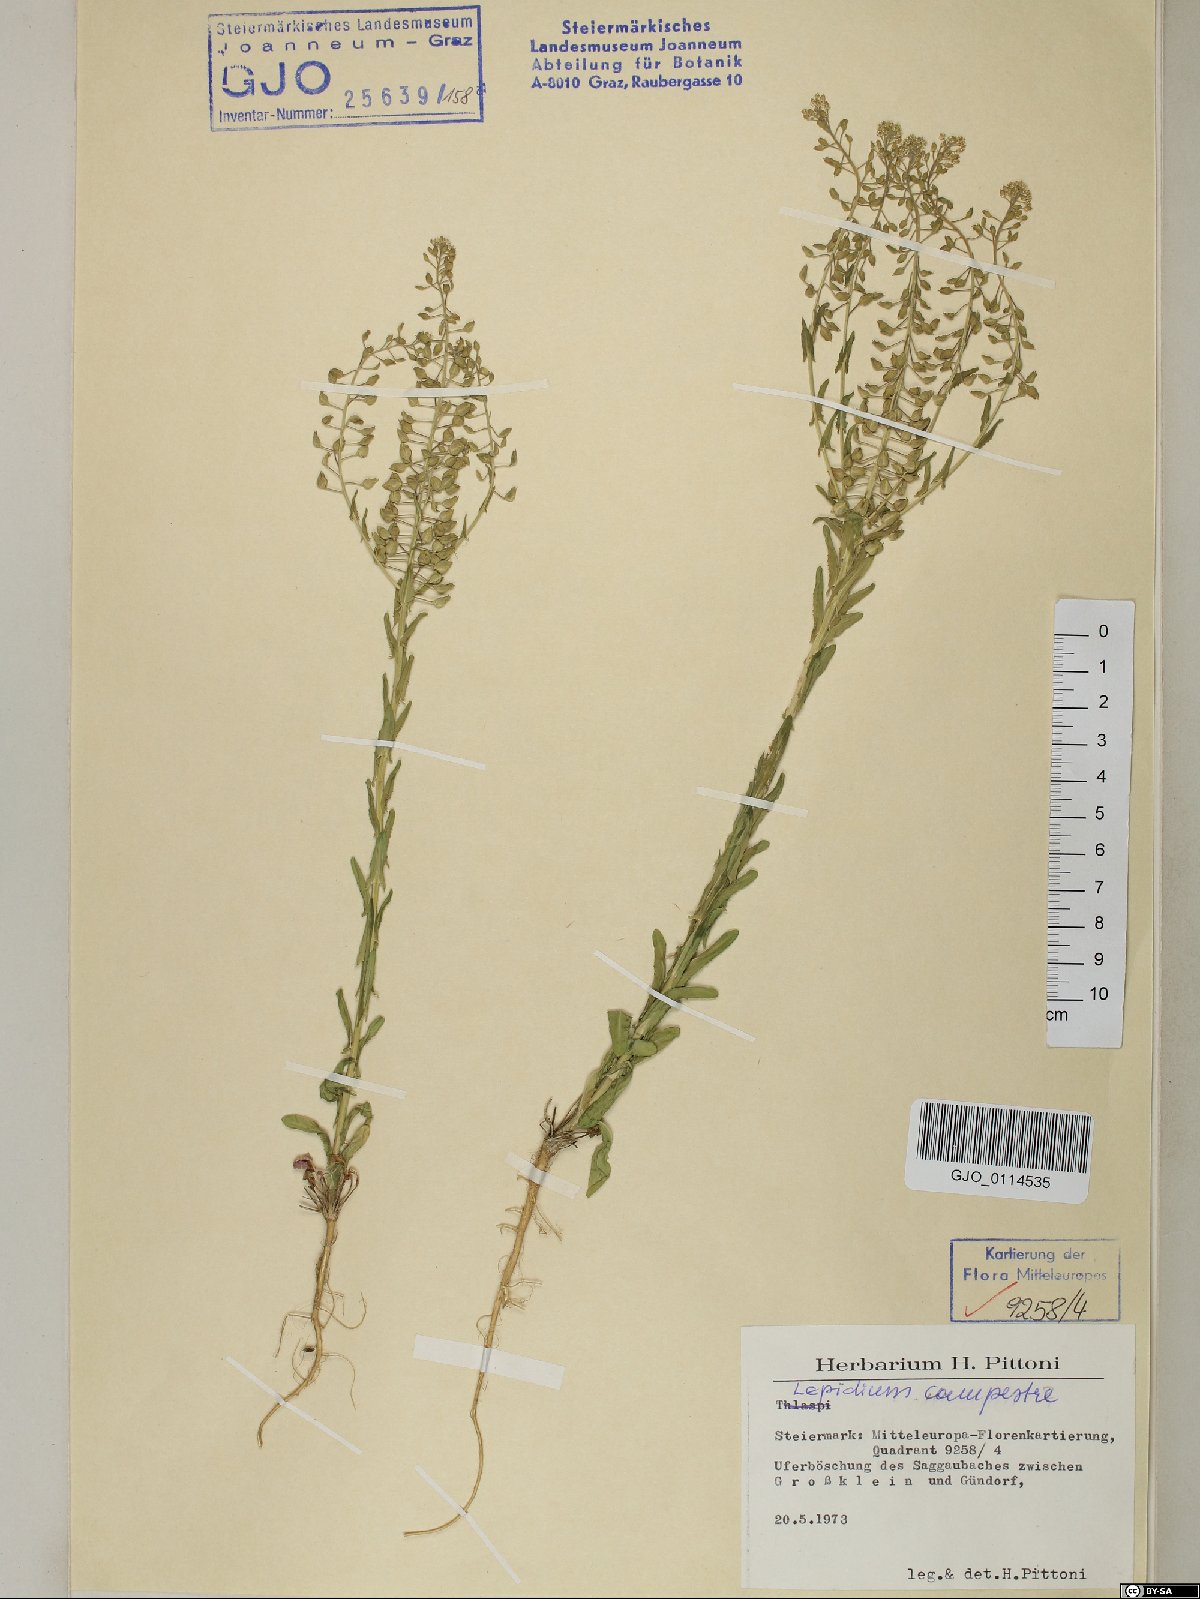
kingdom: Plantae
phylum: Tracheophyta
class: Magnoliopsida
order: Brassicales
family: Brassicaceae
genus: Lepidium
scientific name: Lepidium campestre
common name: Field pepperwort
